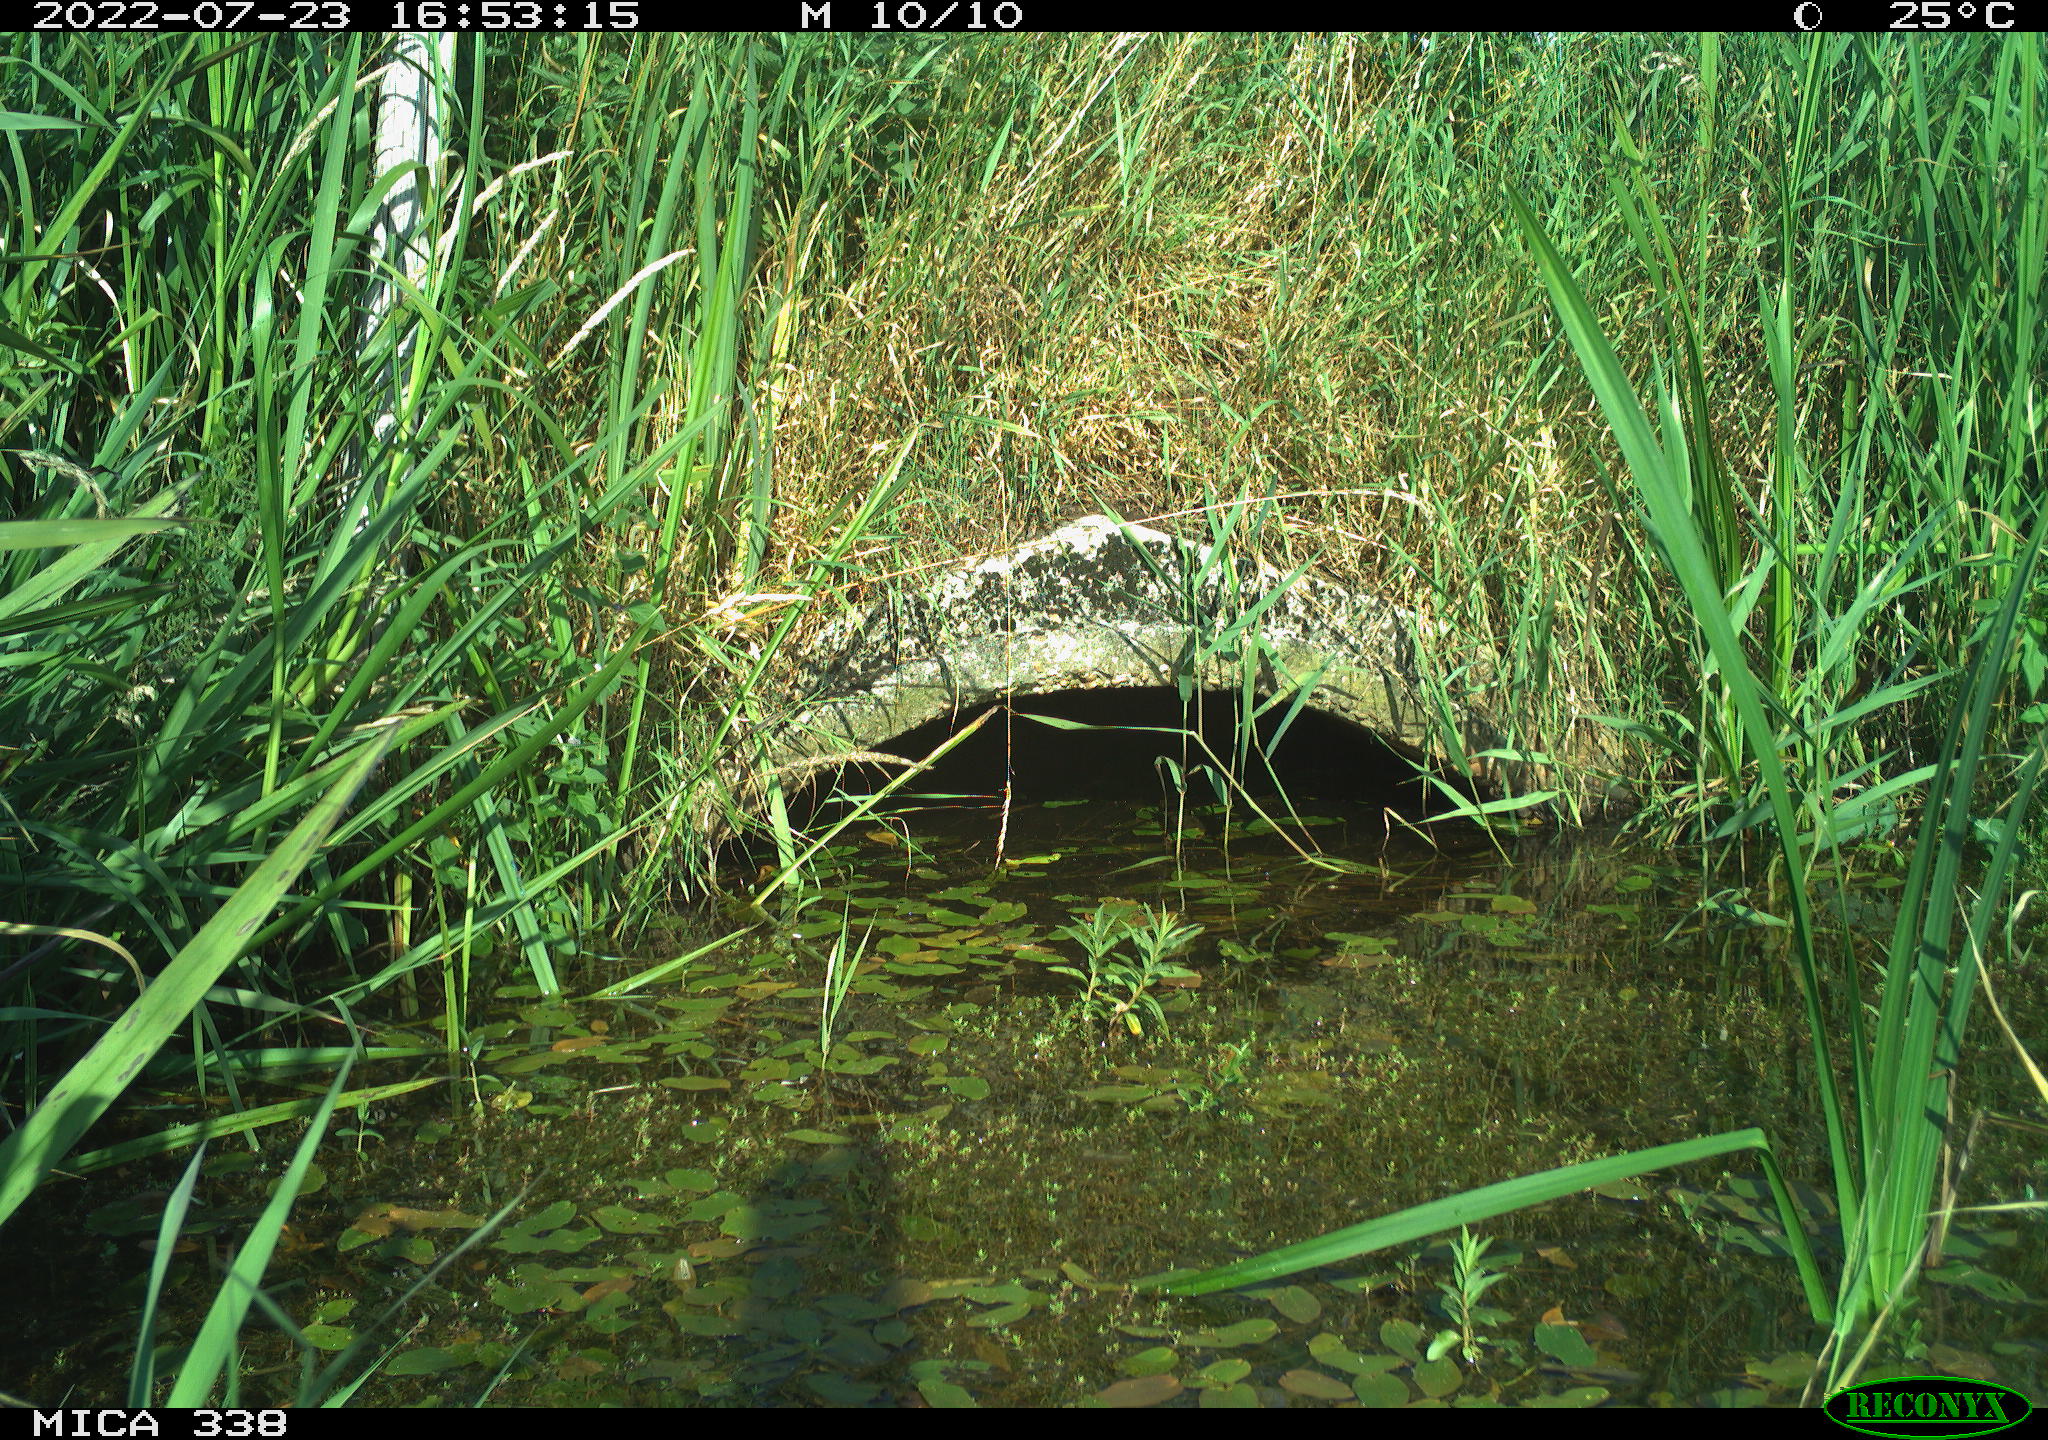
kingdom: Animalia
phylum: Chordata
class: Aves
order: Gruiformes
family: Rallidae
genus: Gallinula
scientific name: Gallinula chloropus
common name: Common moorhen
